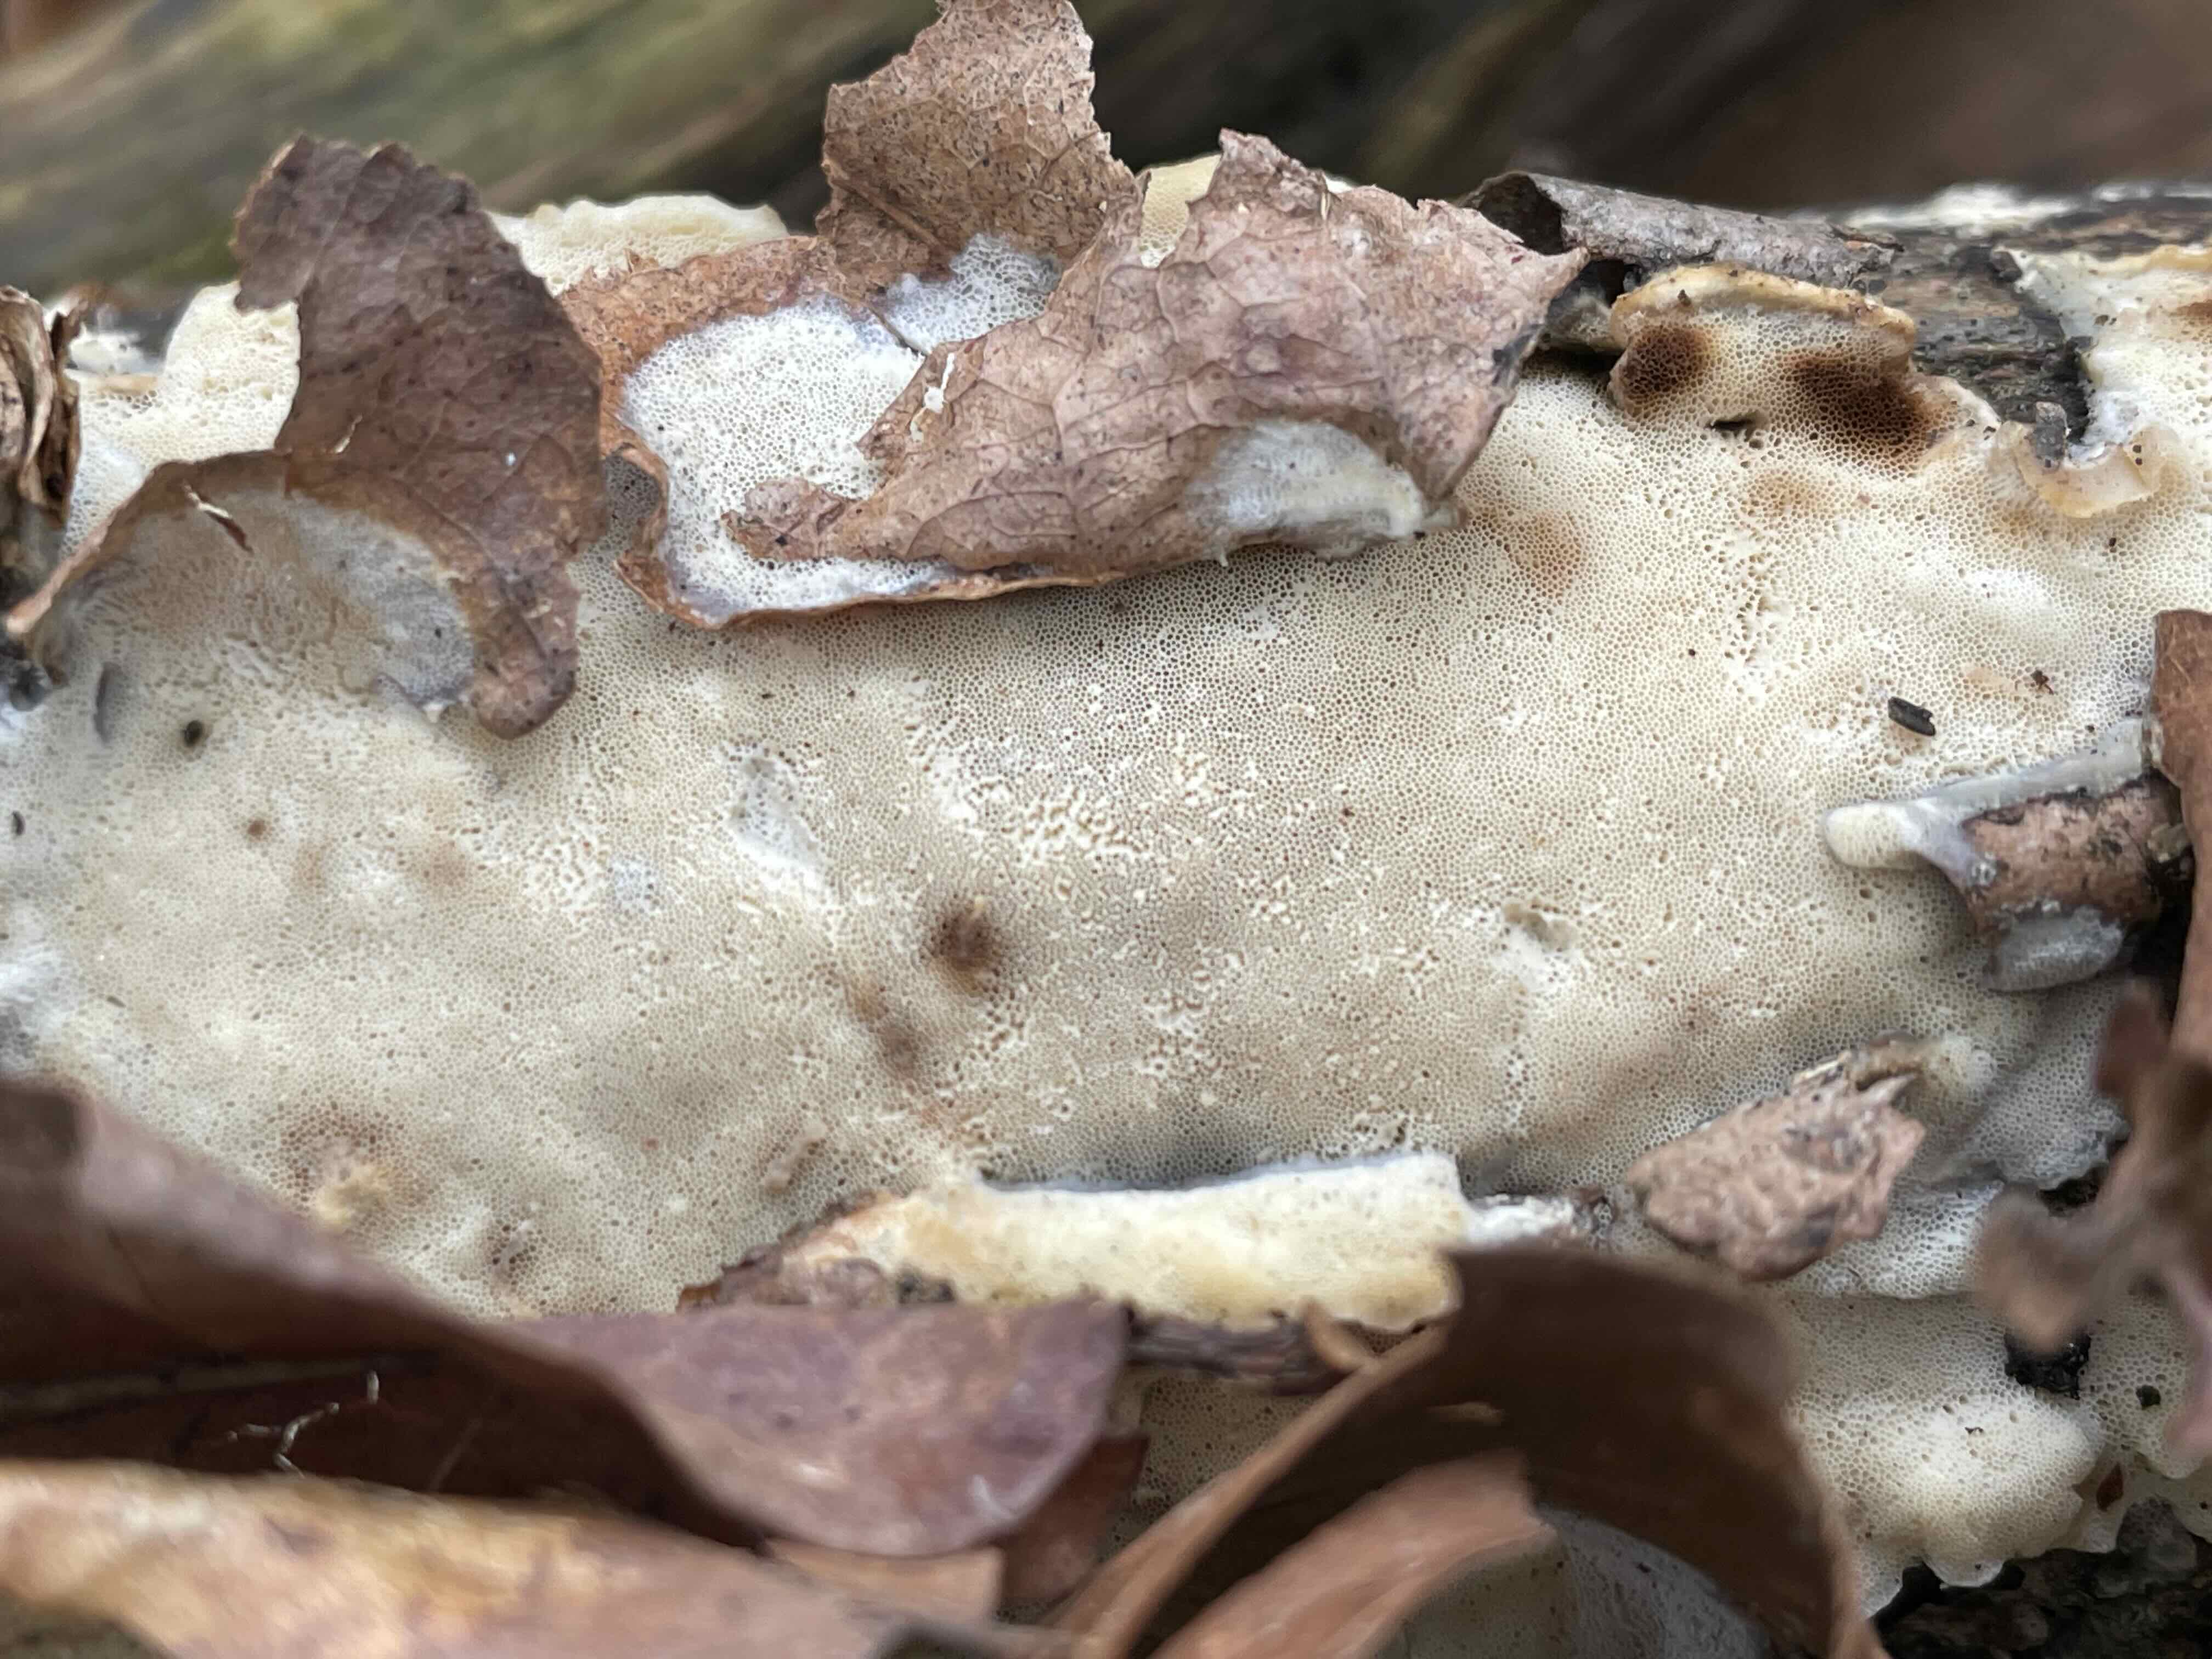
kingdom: Fungi
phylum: Basidiomycota
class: Agaricomycetes
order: Polyporales
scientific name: Polyporales
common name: poresvampordenen
